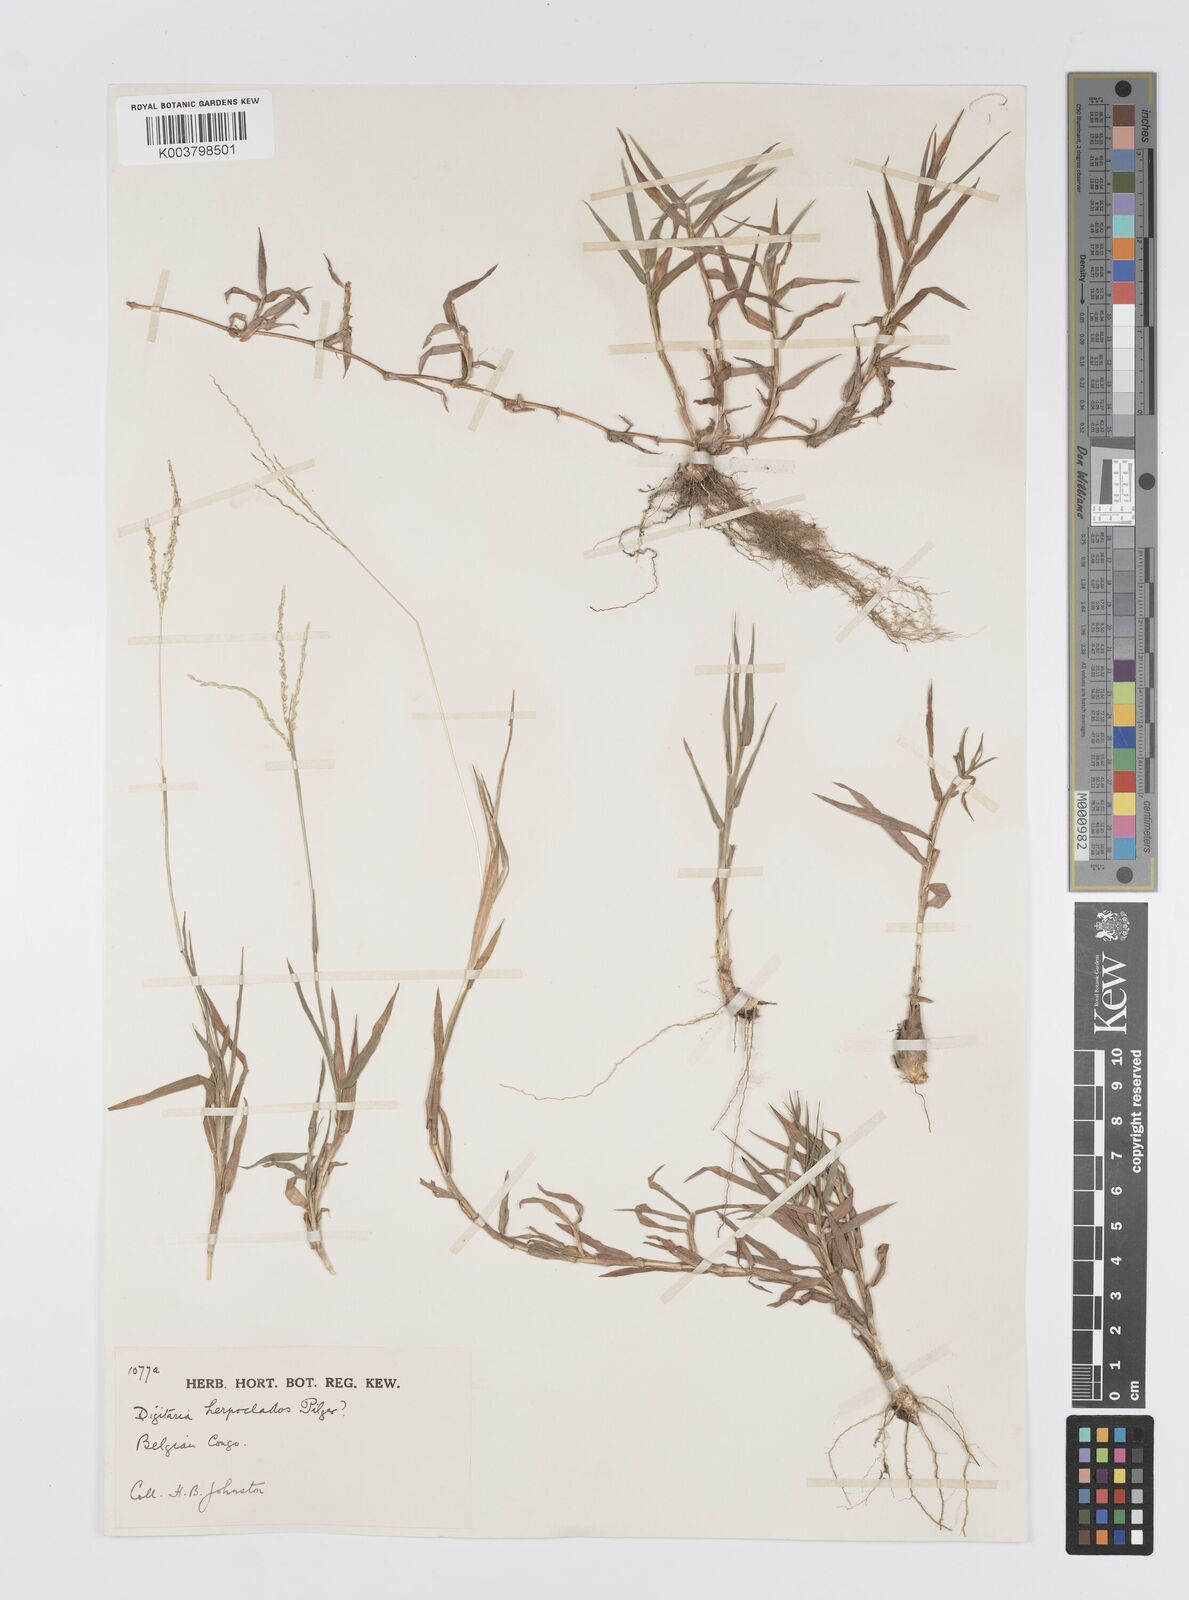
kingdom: Plantae
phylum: Tracheophyta
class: Liliopsida
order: Poales
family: Poaceae
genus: Digitaria
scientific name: Digitaria gazensis
